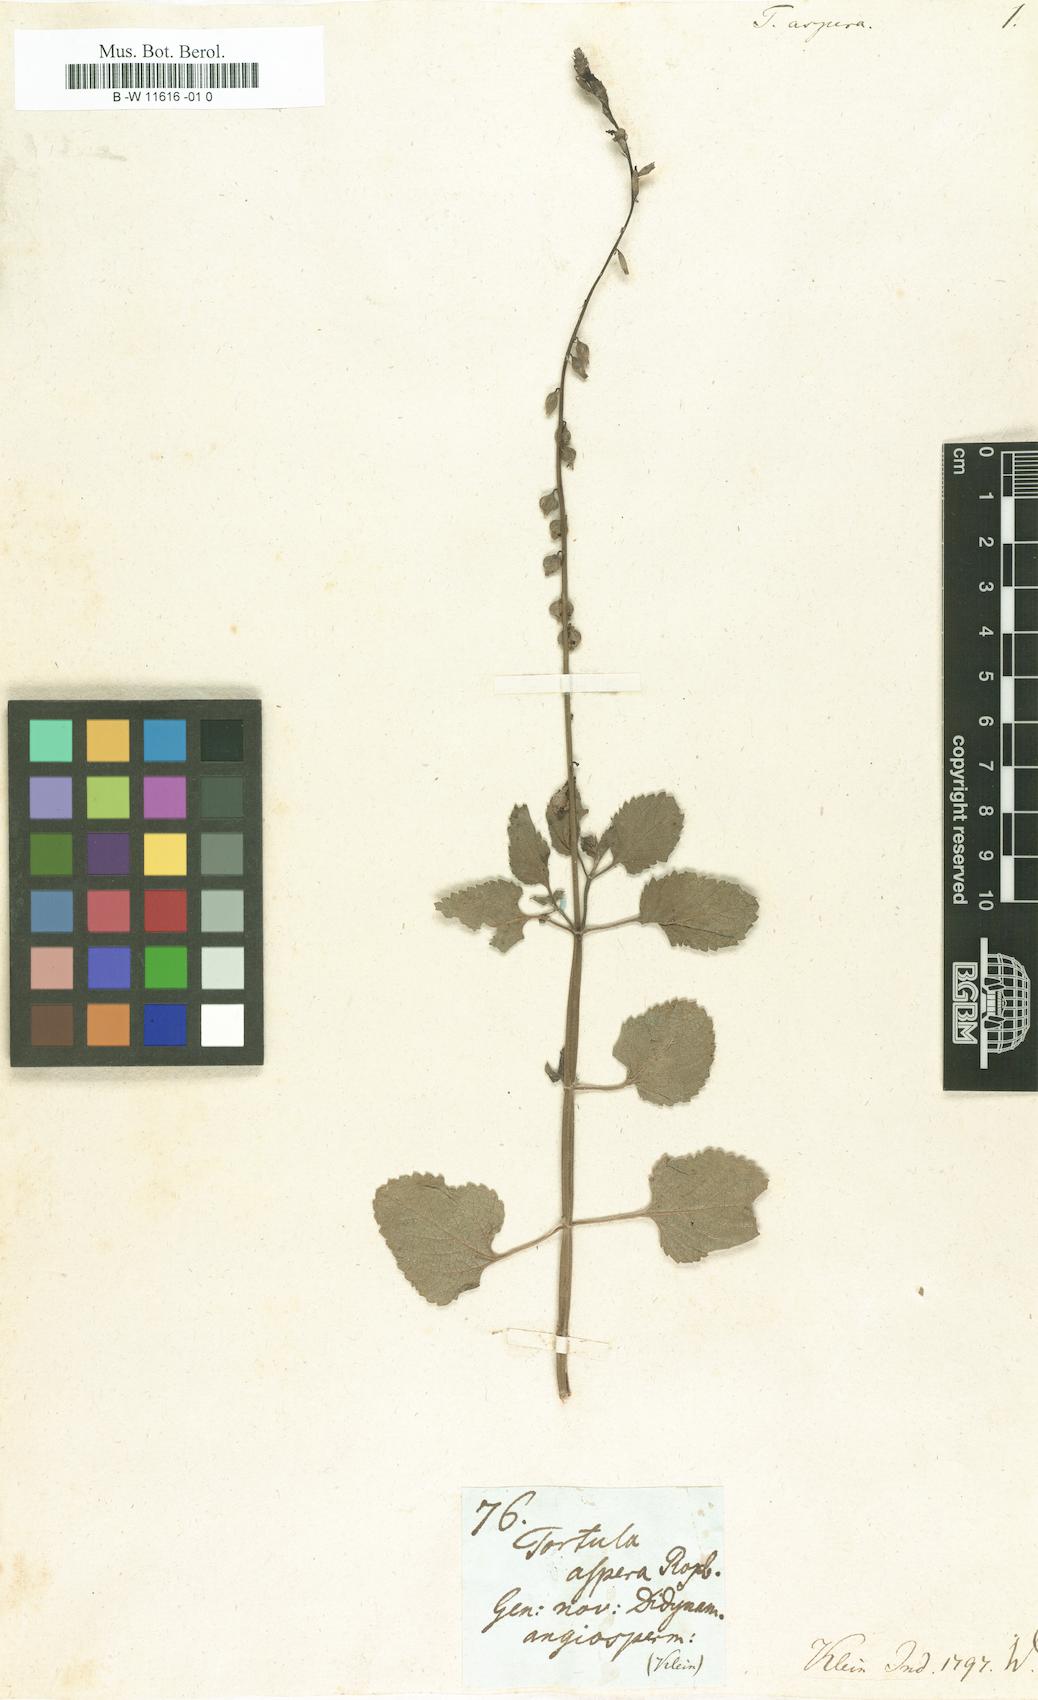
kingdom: Plantae
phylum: Tracheophyta
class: Magnoliopsida
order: Lamiales
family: Verbenaceae
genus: Priva
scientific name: Priva cordifolia
